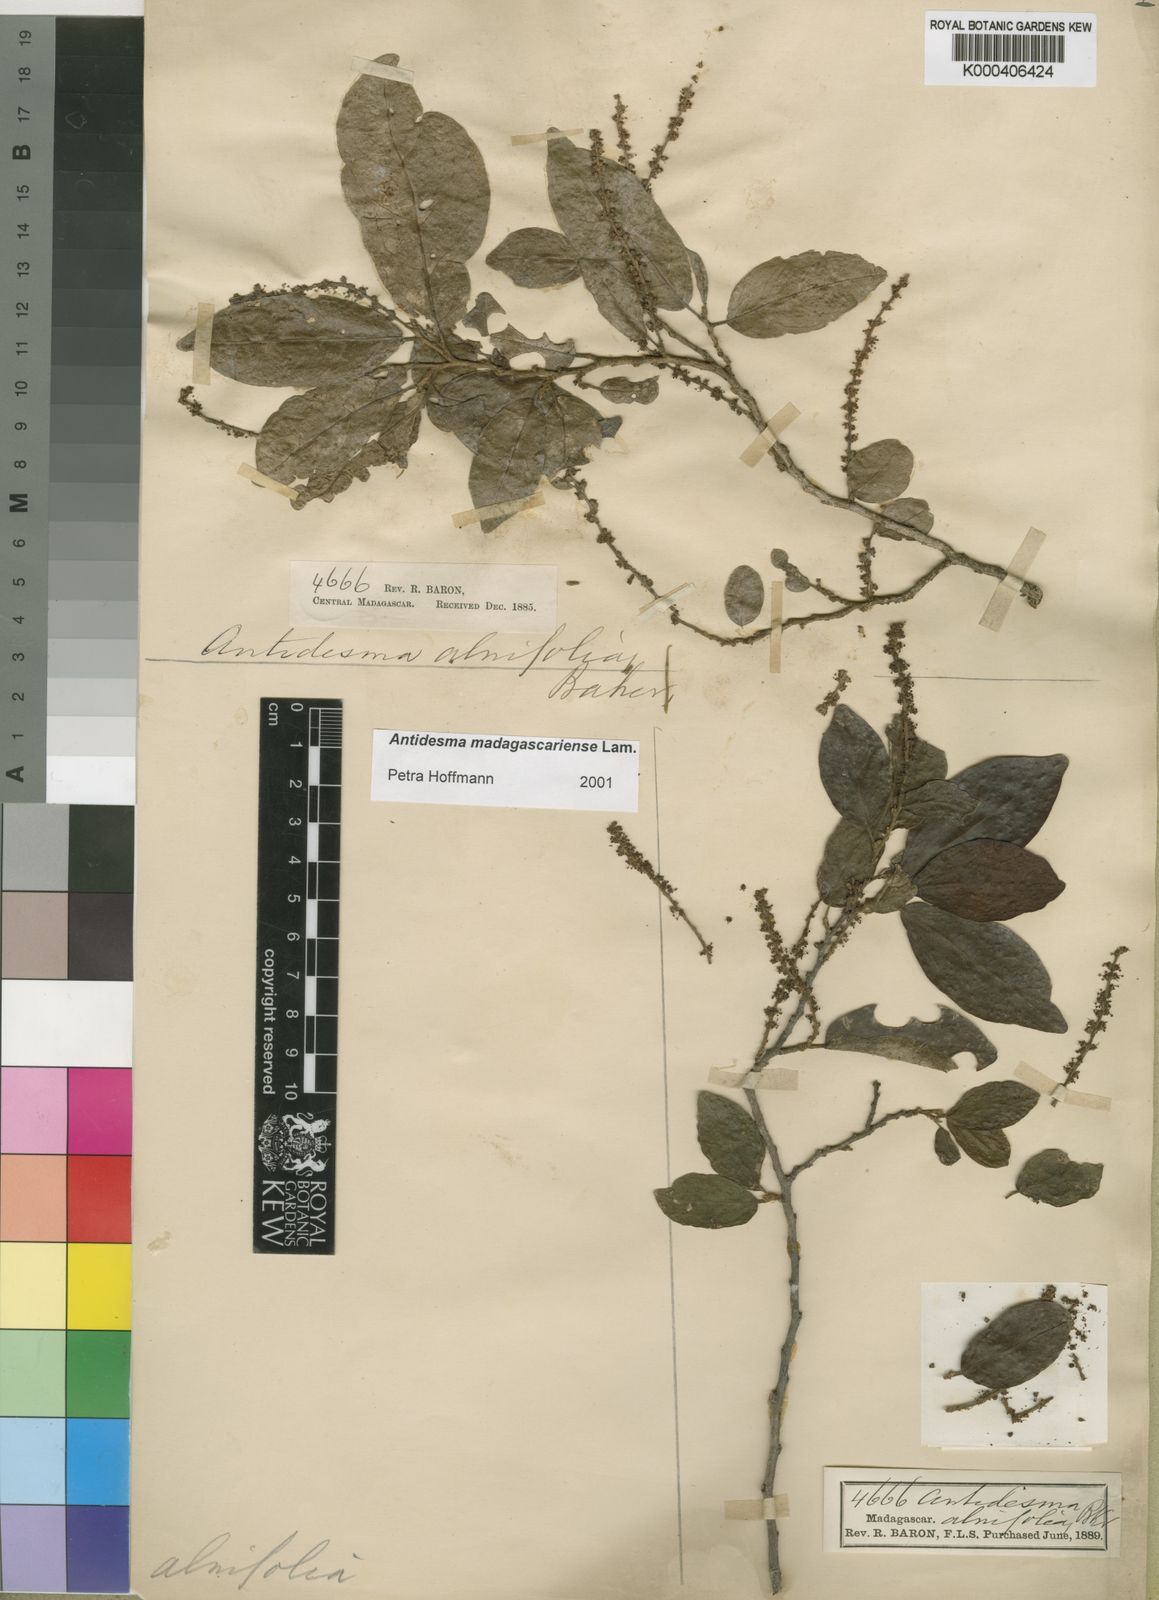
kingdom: Plantae
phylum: Tracheophyta
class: Magnoliopsida
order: Malpighiales
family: Phyllanthaceae
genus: Antidesma
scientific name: Antidesma madagascariense
